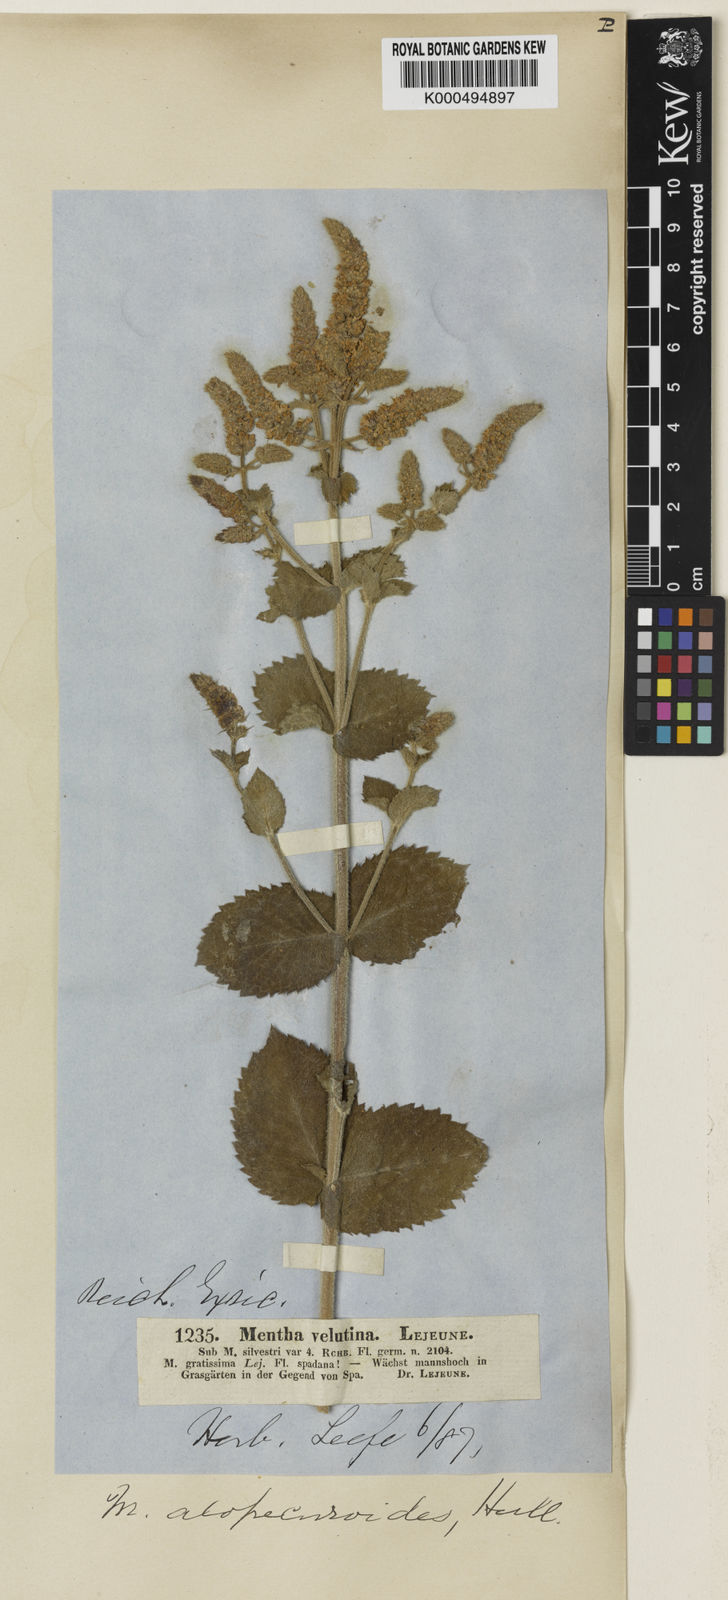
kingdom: Plantae
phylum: Tracheophyta
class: Magnoliopsida
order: Lamiales
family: Lamiaceae
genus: Mentha
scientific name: Mentha villosa
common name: Apple mint
